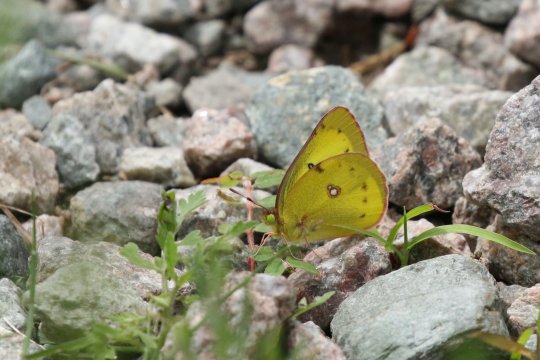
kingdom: Animalia
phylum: Arthropoda
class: Insecta
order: Lepidoptera
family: Pieridae
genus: Colias
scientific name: Colias philodice
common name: Clouded Sulphur
